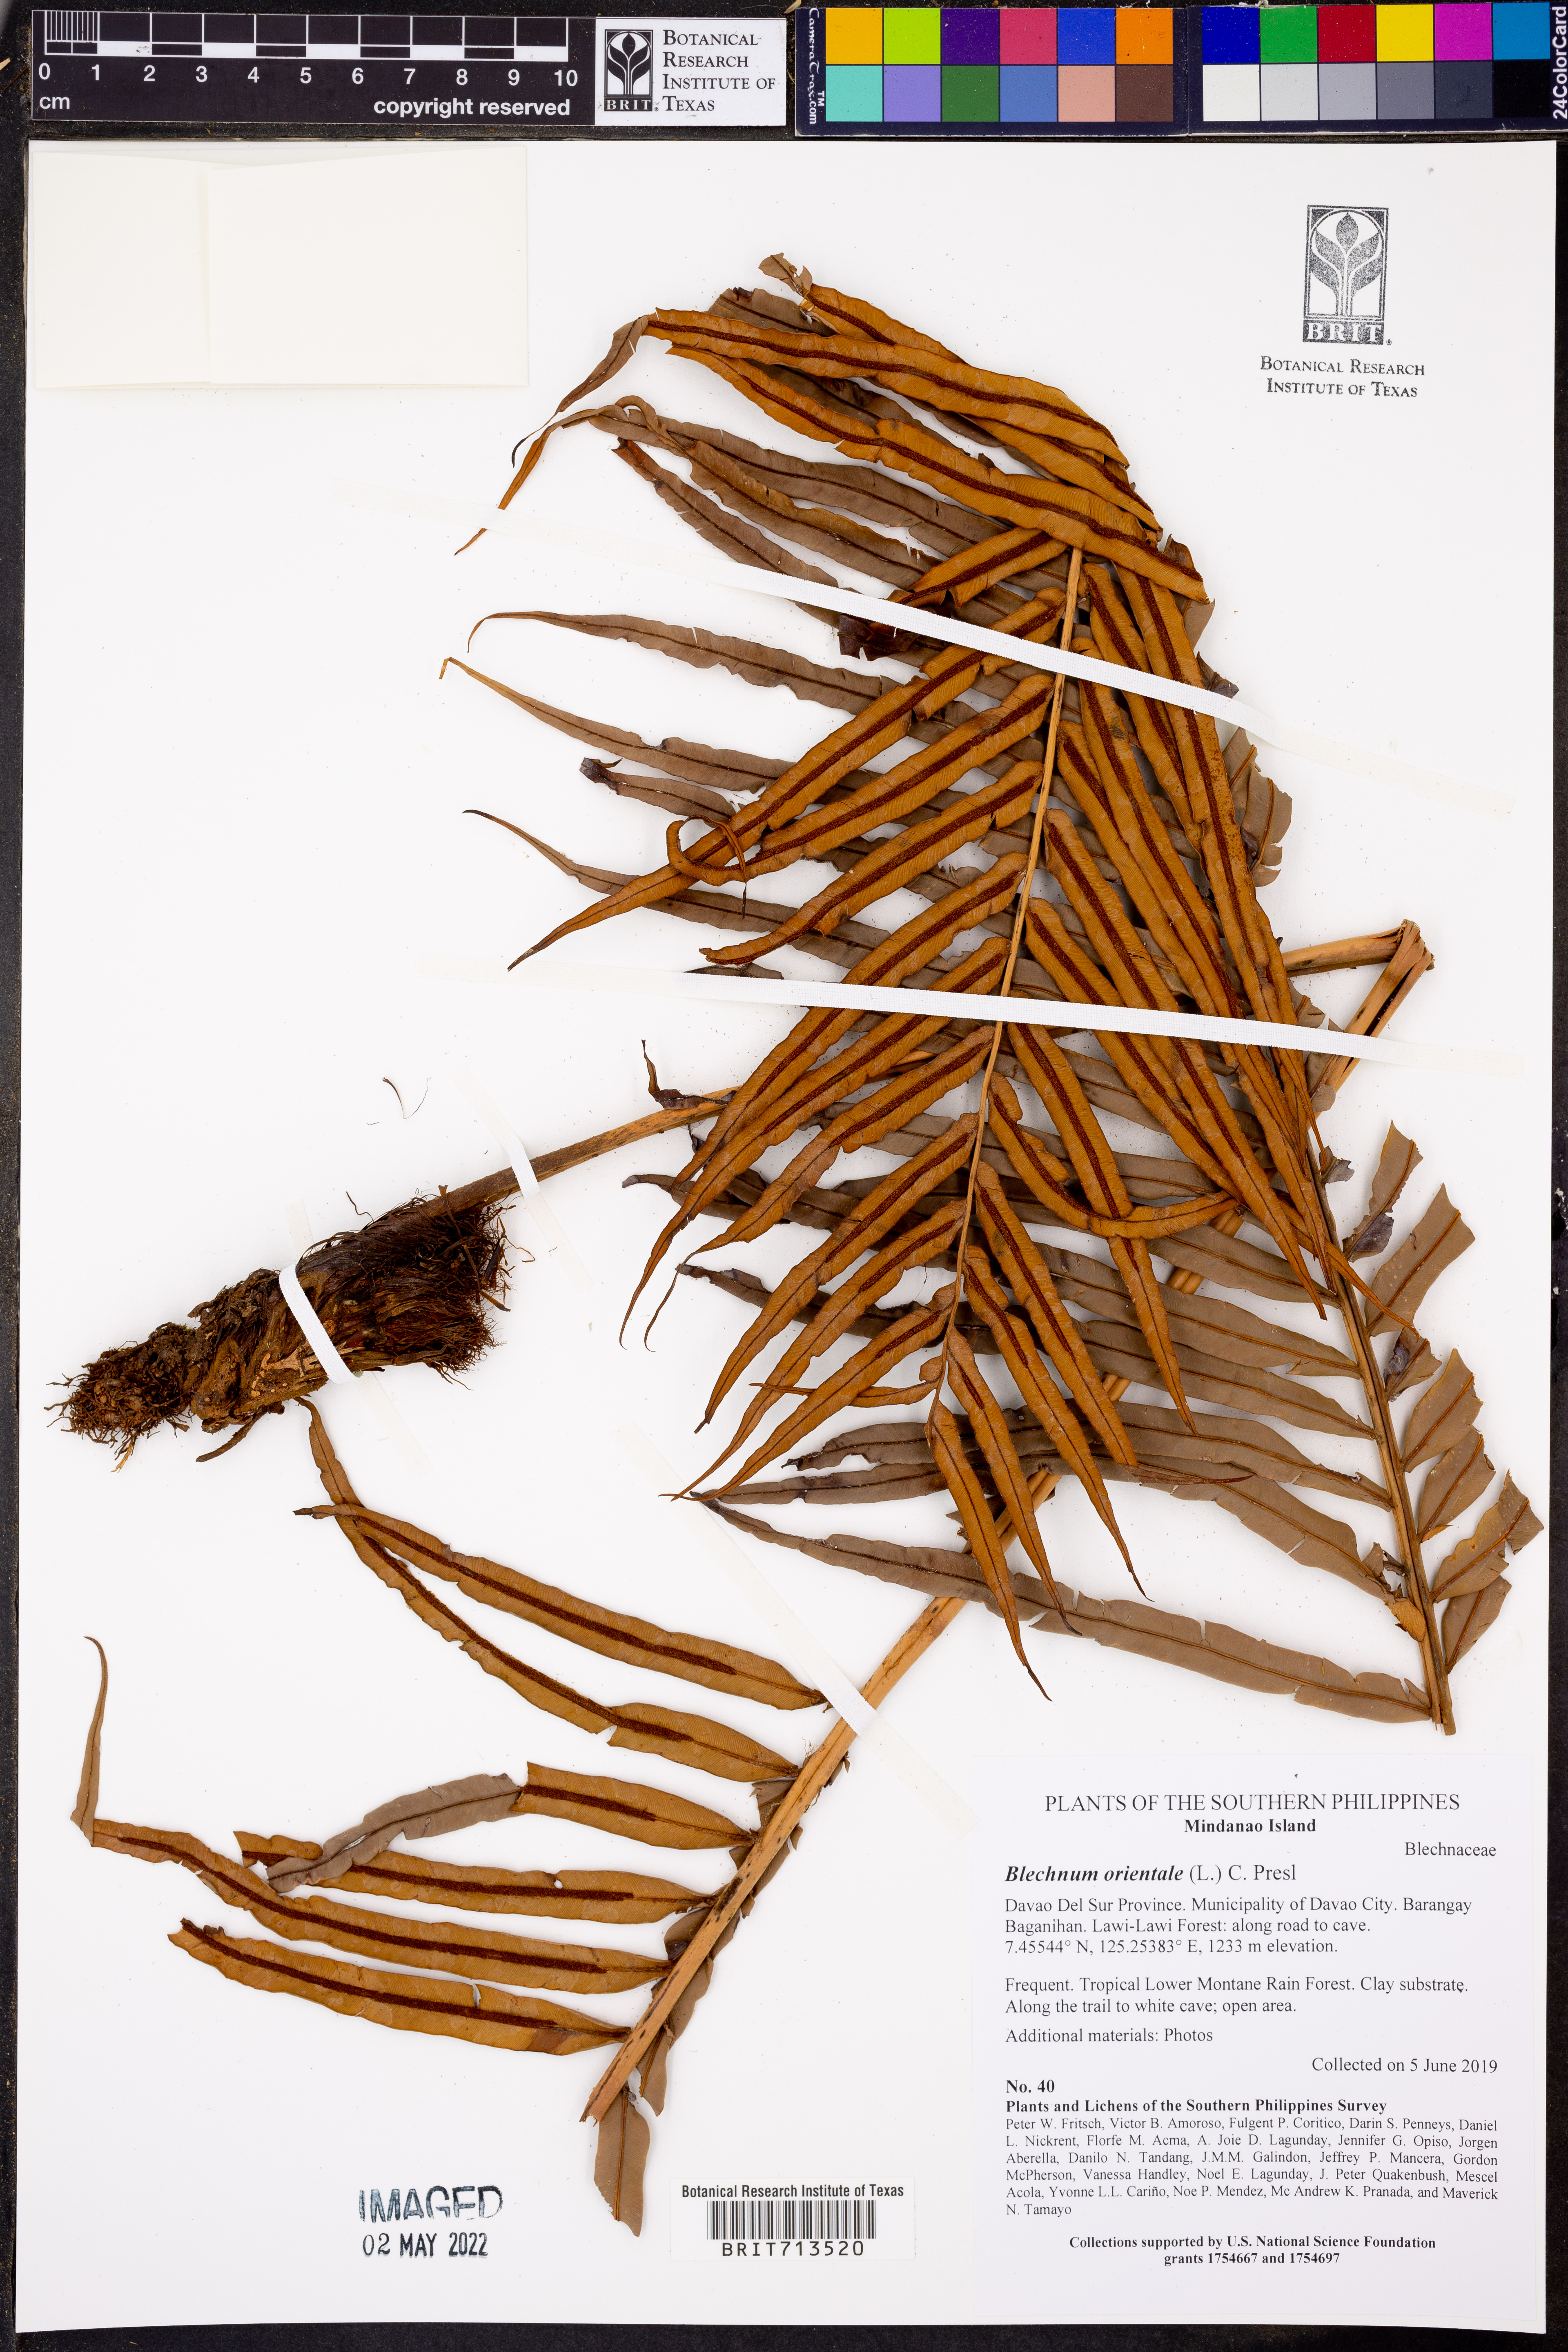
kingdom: Plantae
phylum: Tracheophyta
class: Polypodiopsida
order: Polypodiales
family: Blechnaceae
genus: Blechnopsis
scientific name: Blechnopsis orientalis
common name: Oriental blechnum
